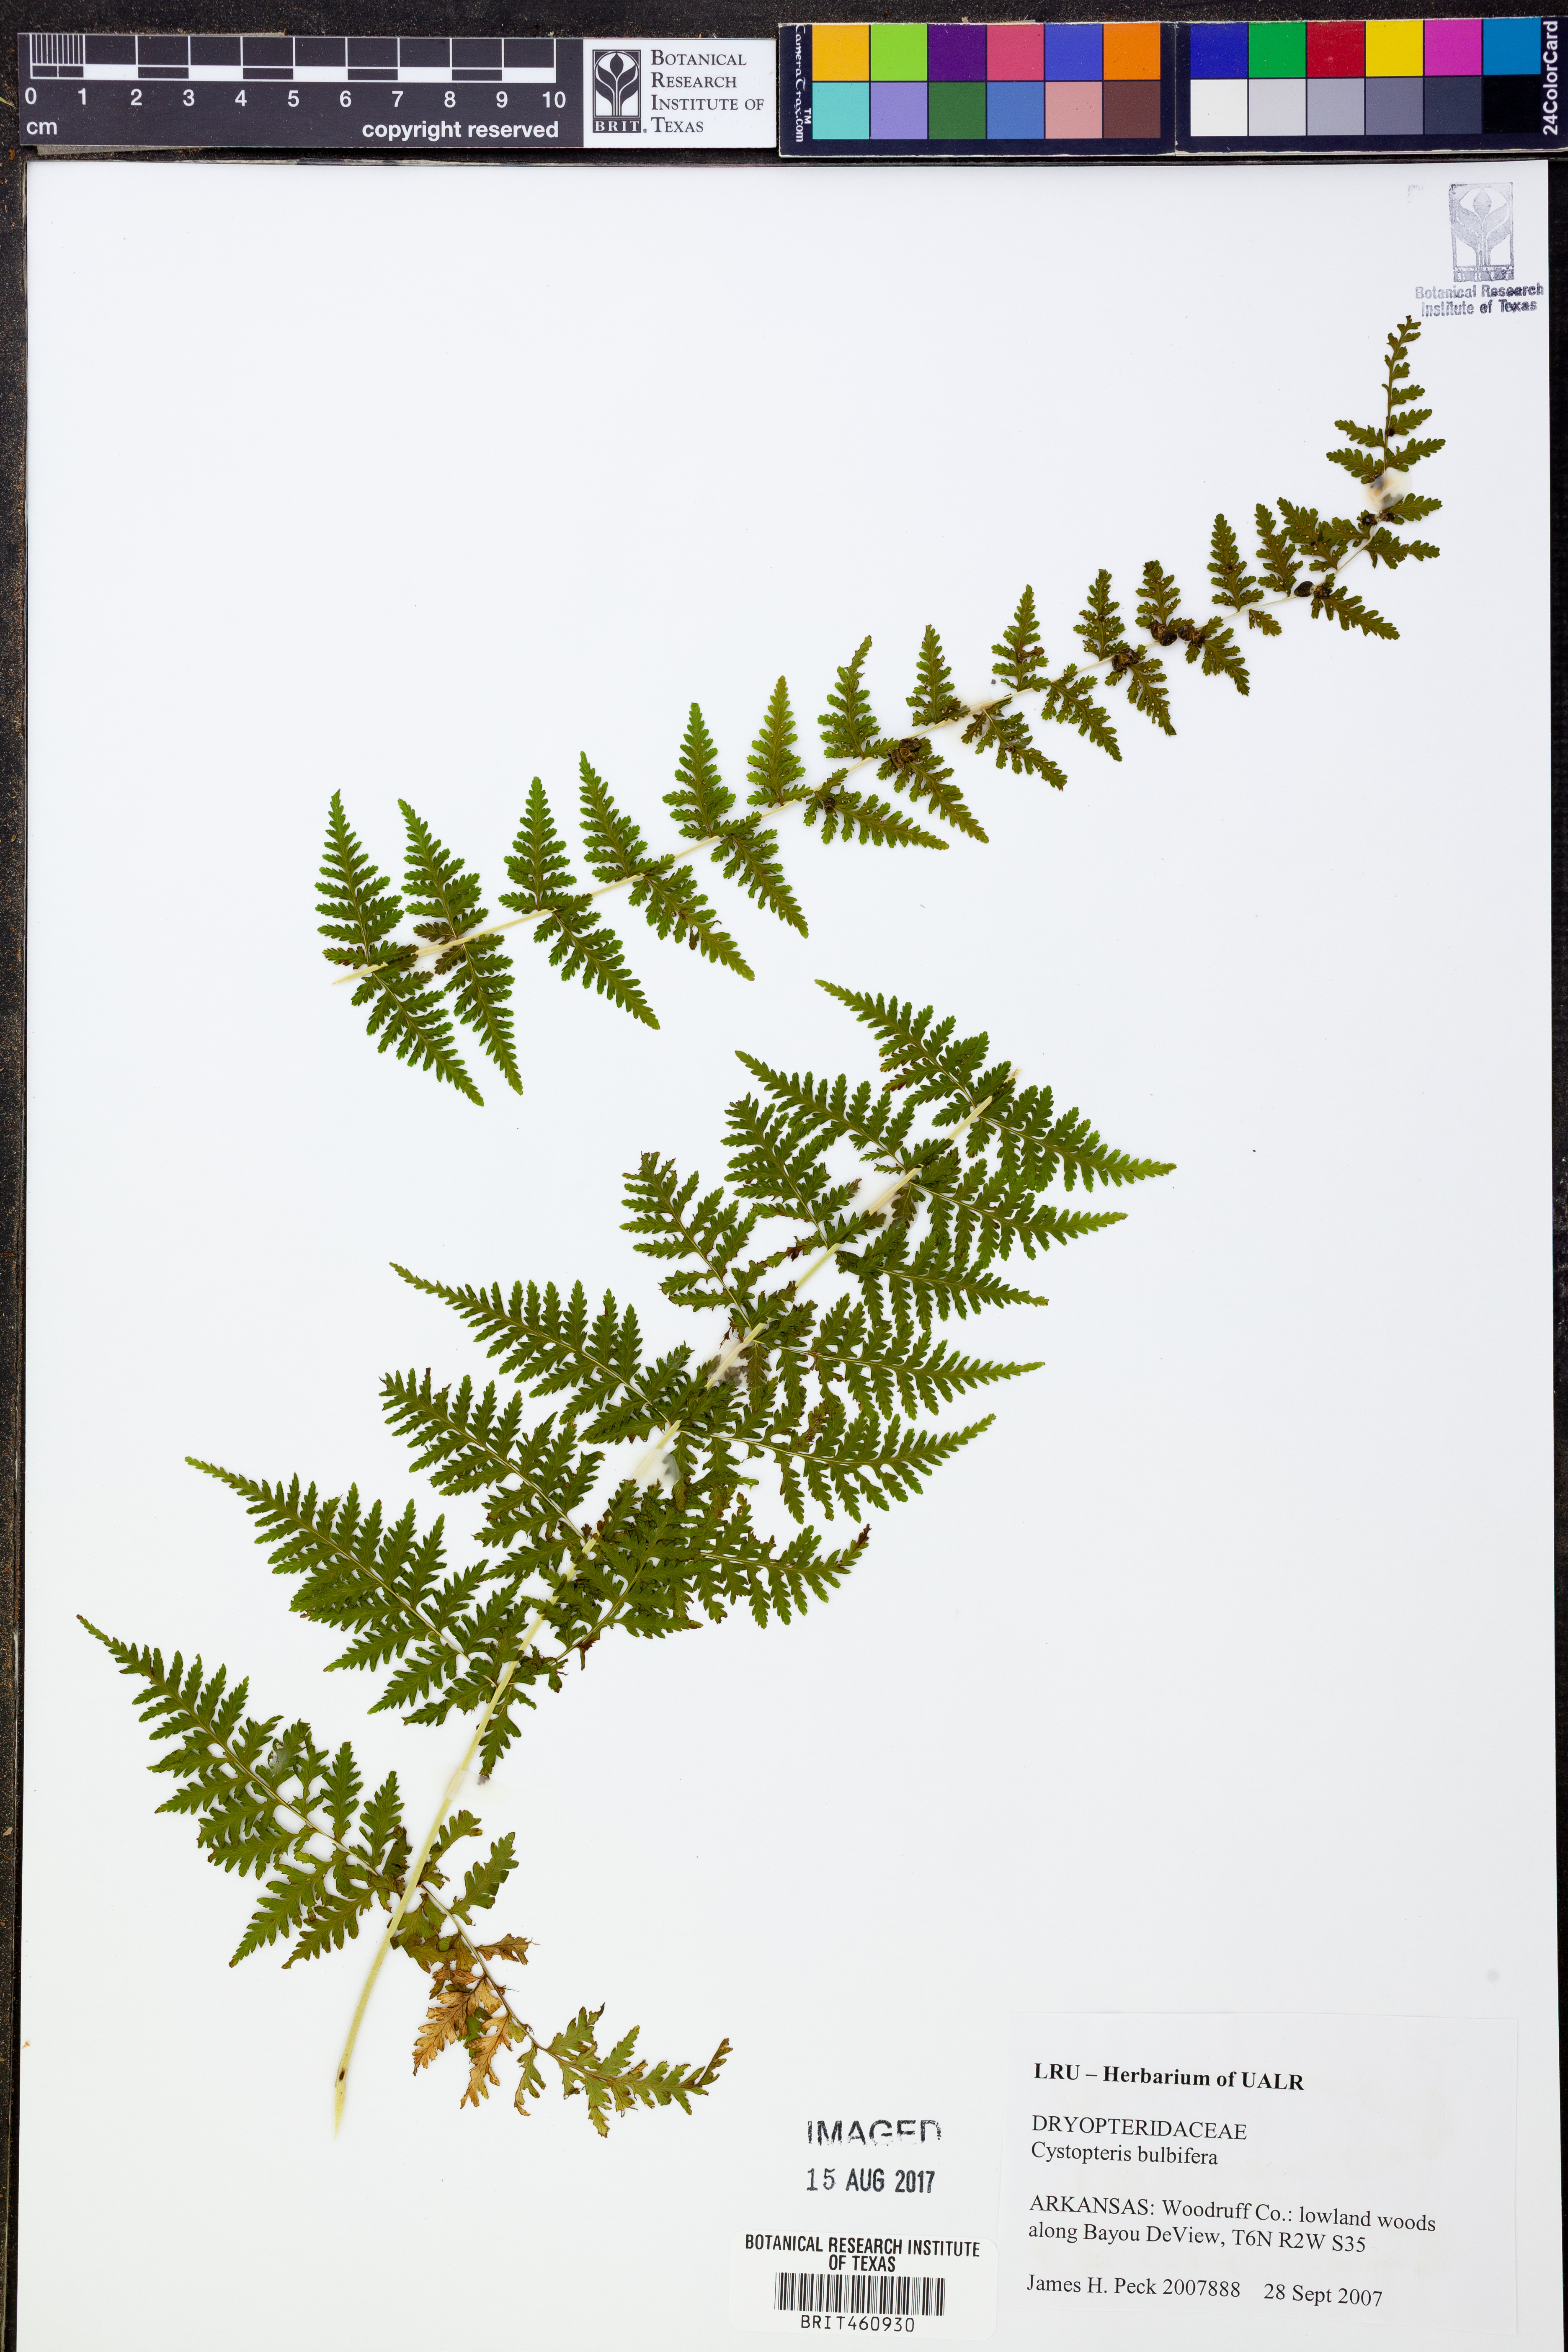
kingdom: Plantae
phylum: Tracheophyta
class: Polypodiopsida
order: Polypodiales
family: Cystopteridaceae
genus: Cystopteris
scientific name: Cystopteris bulbifera
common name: Bulblet bladder fern
